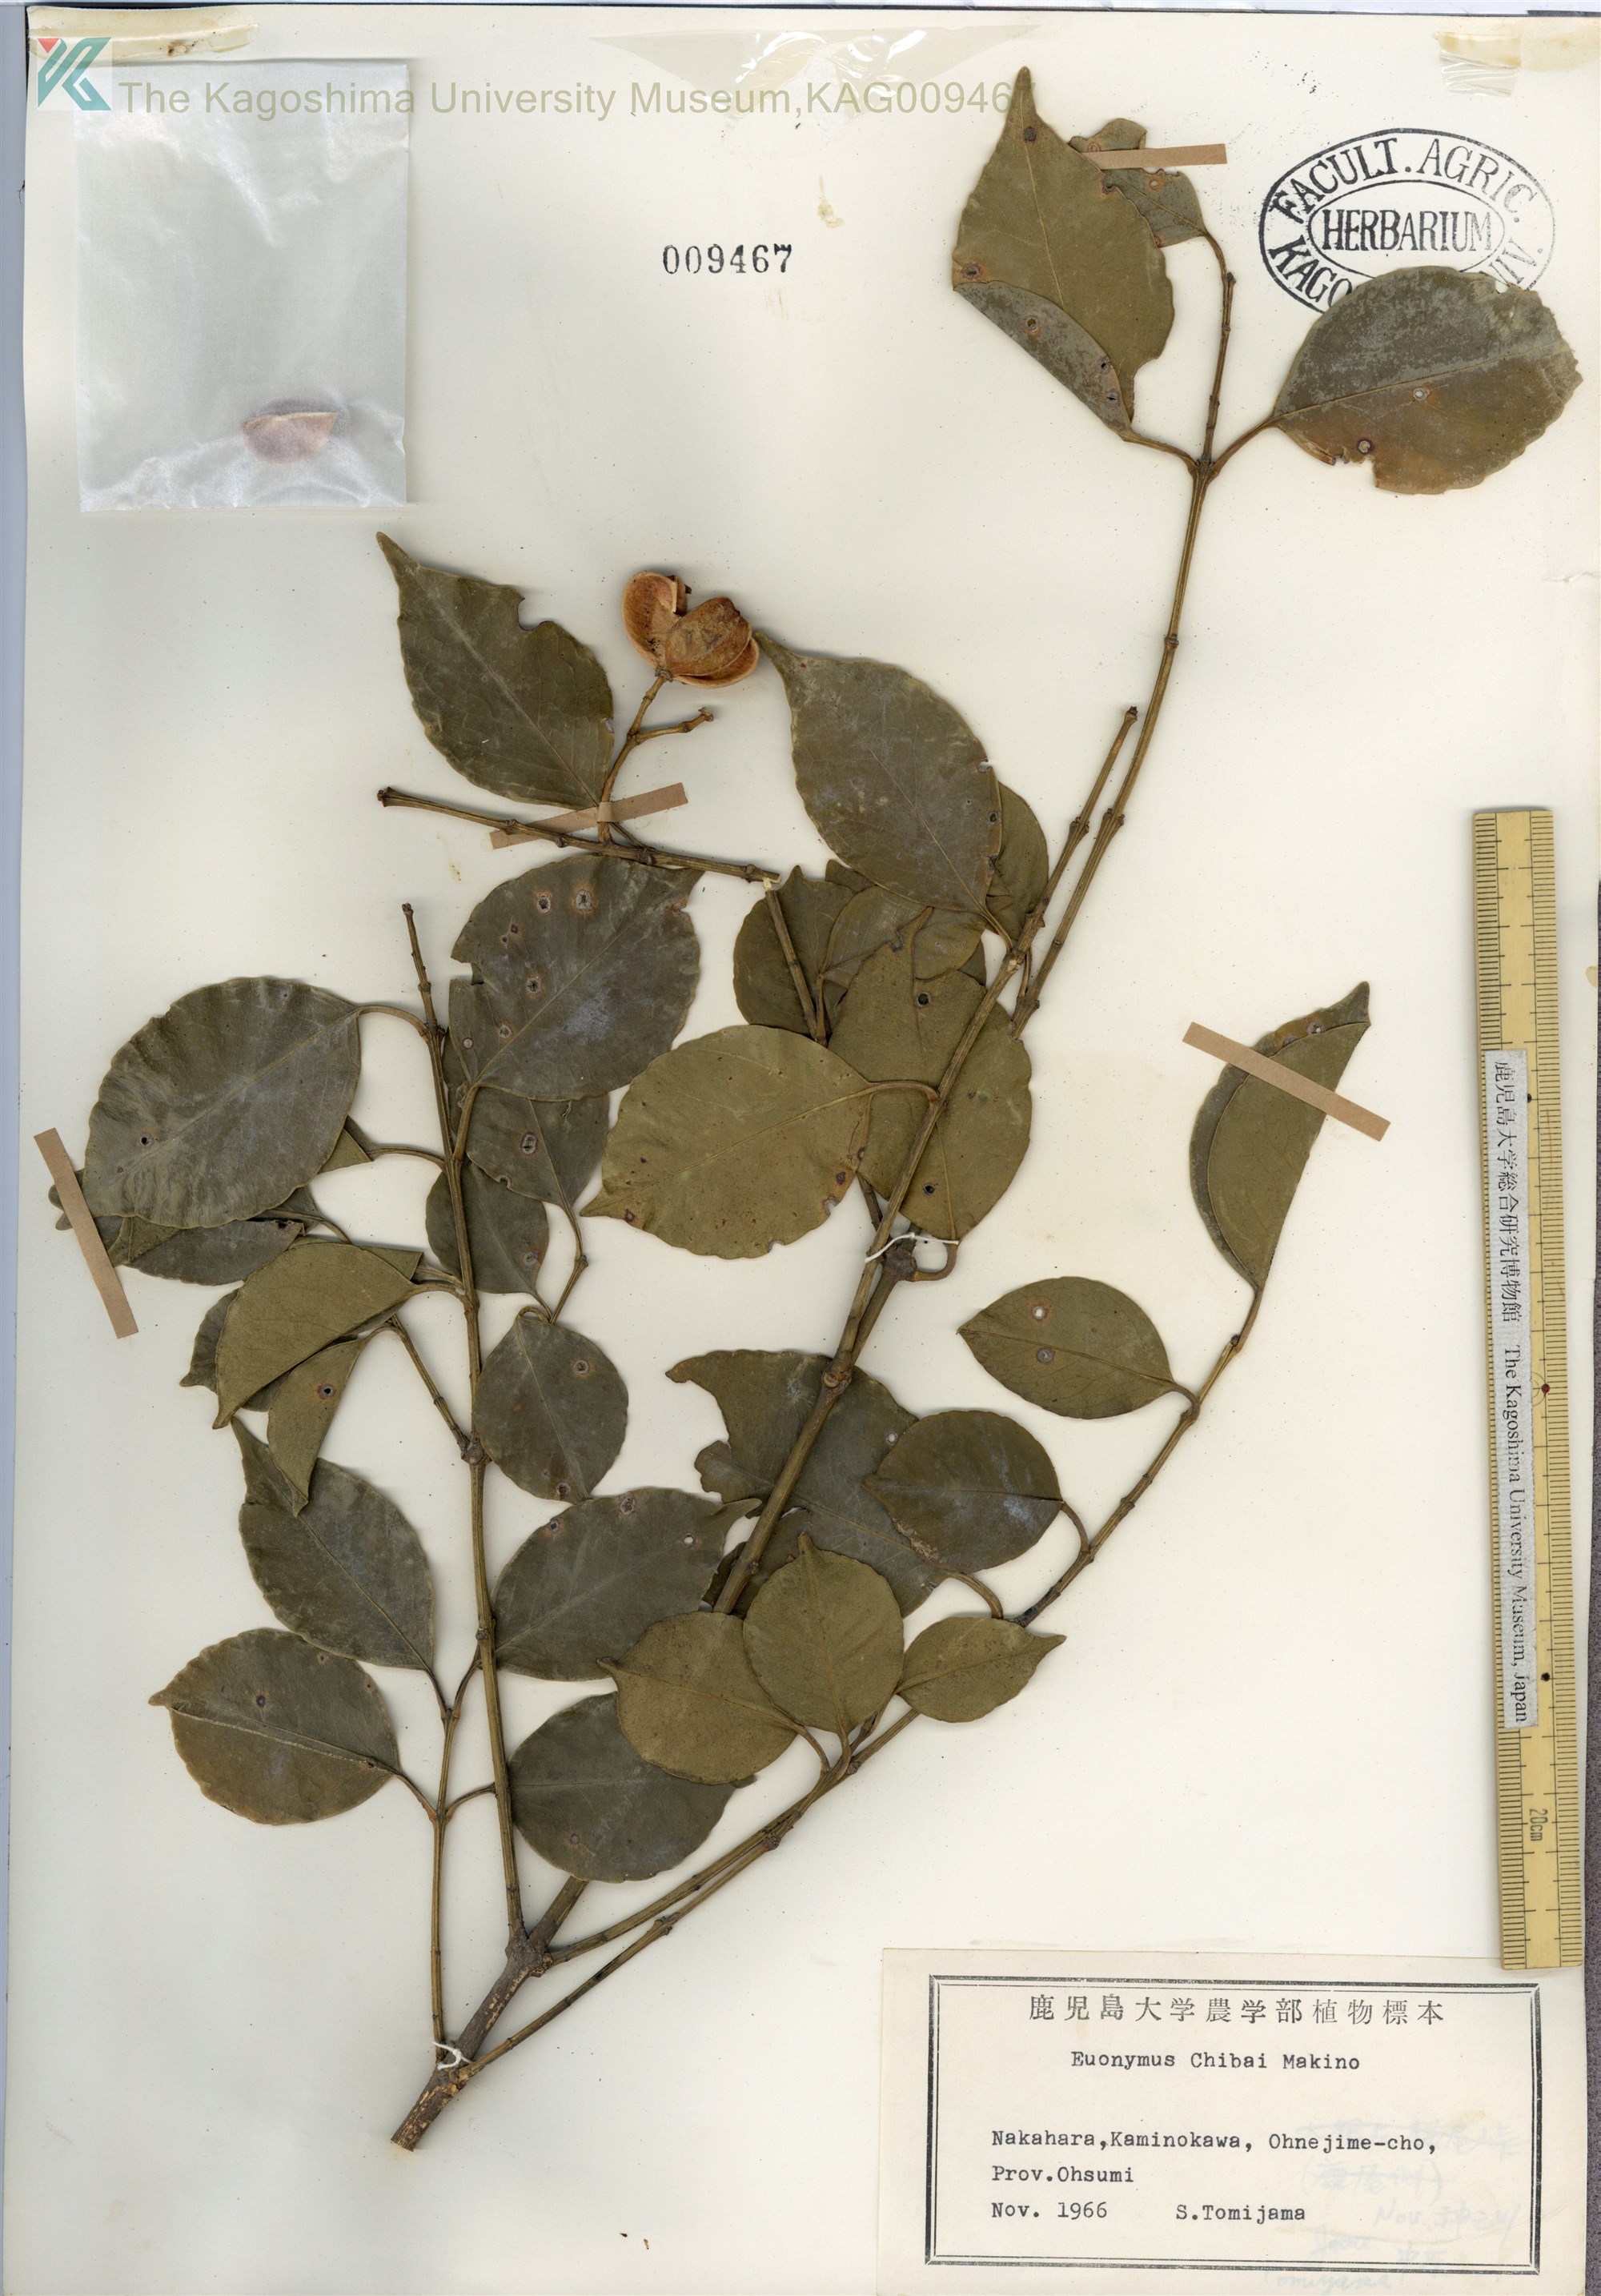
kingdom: Plantae
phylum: Tracheophyta
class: Magnoliopsida
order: Celastrales
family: Celastraceae
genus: Euonymus
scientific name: Euonymus chibae
